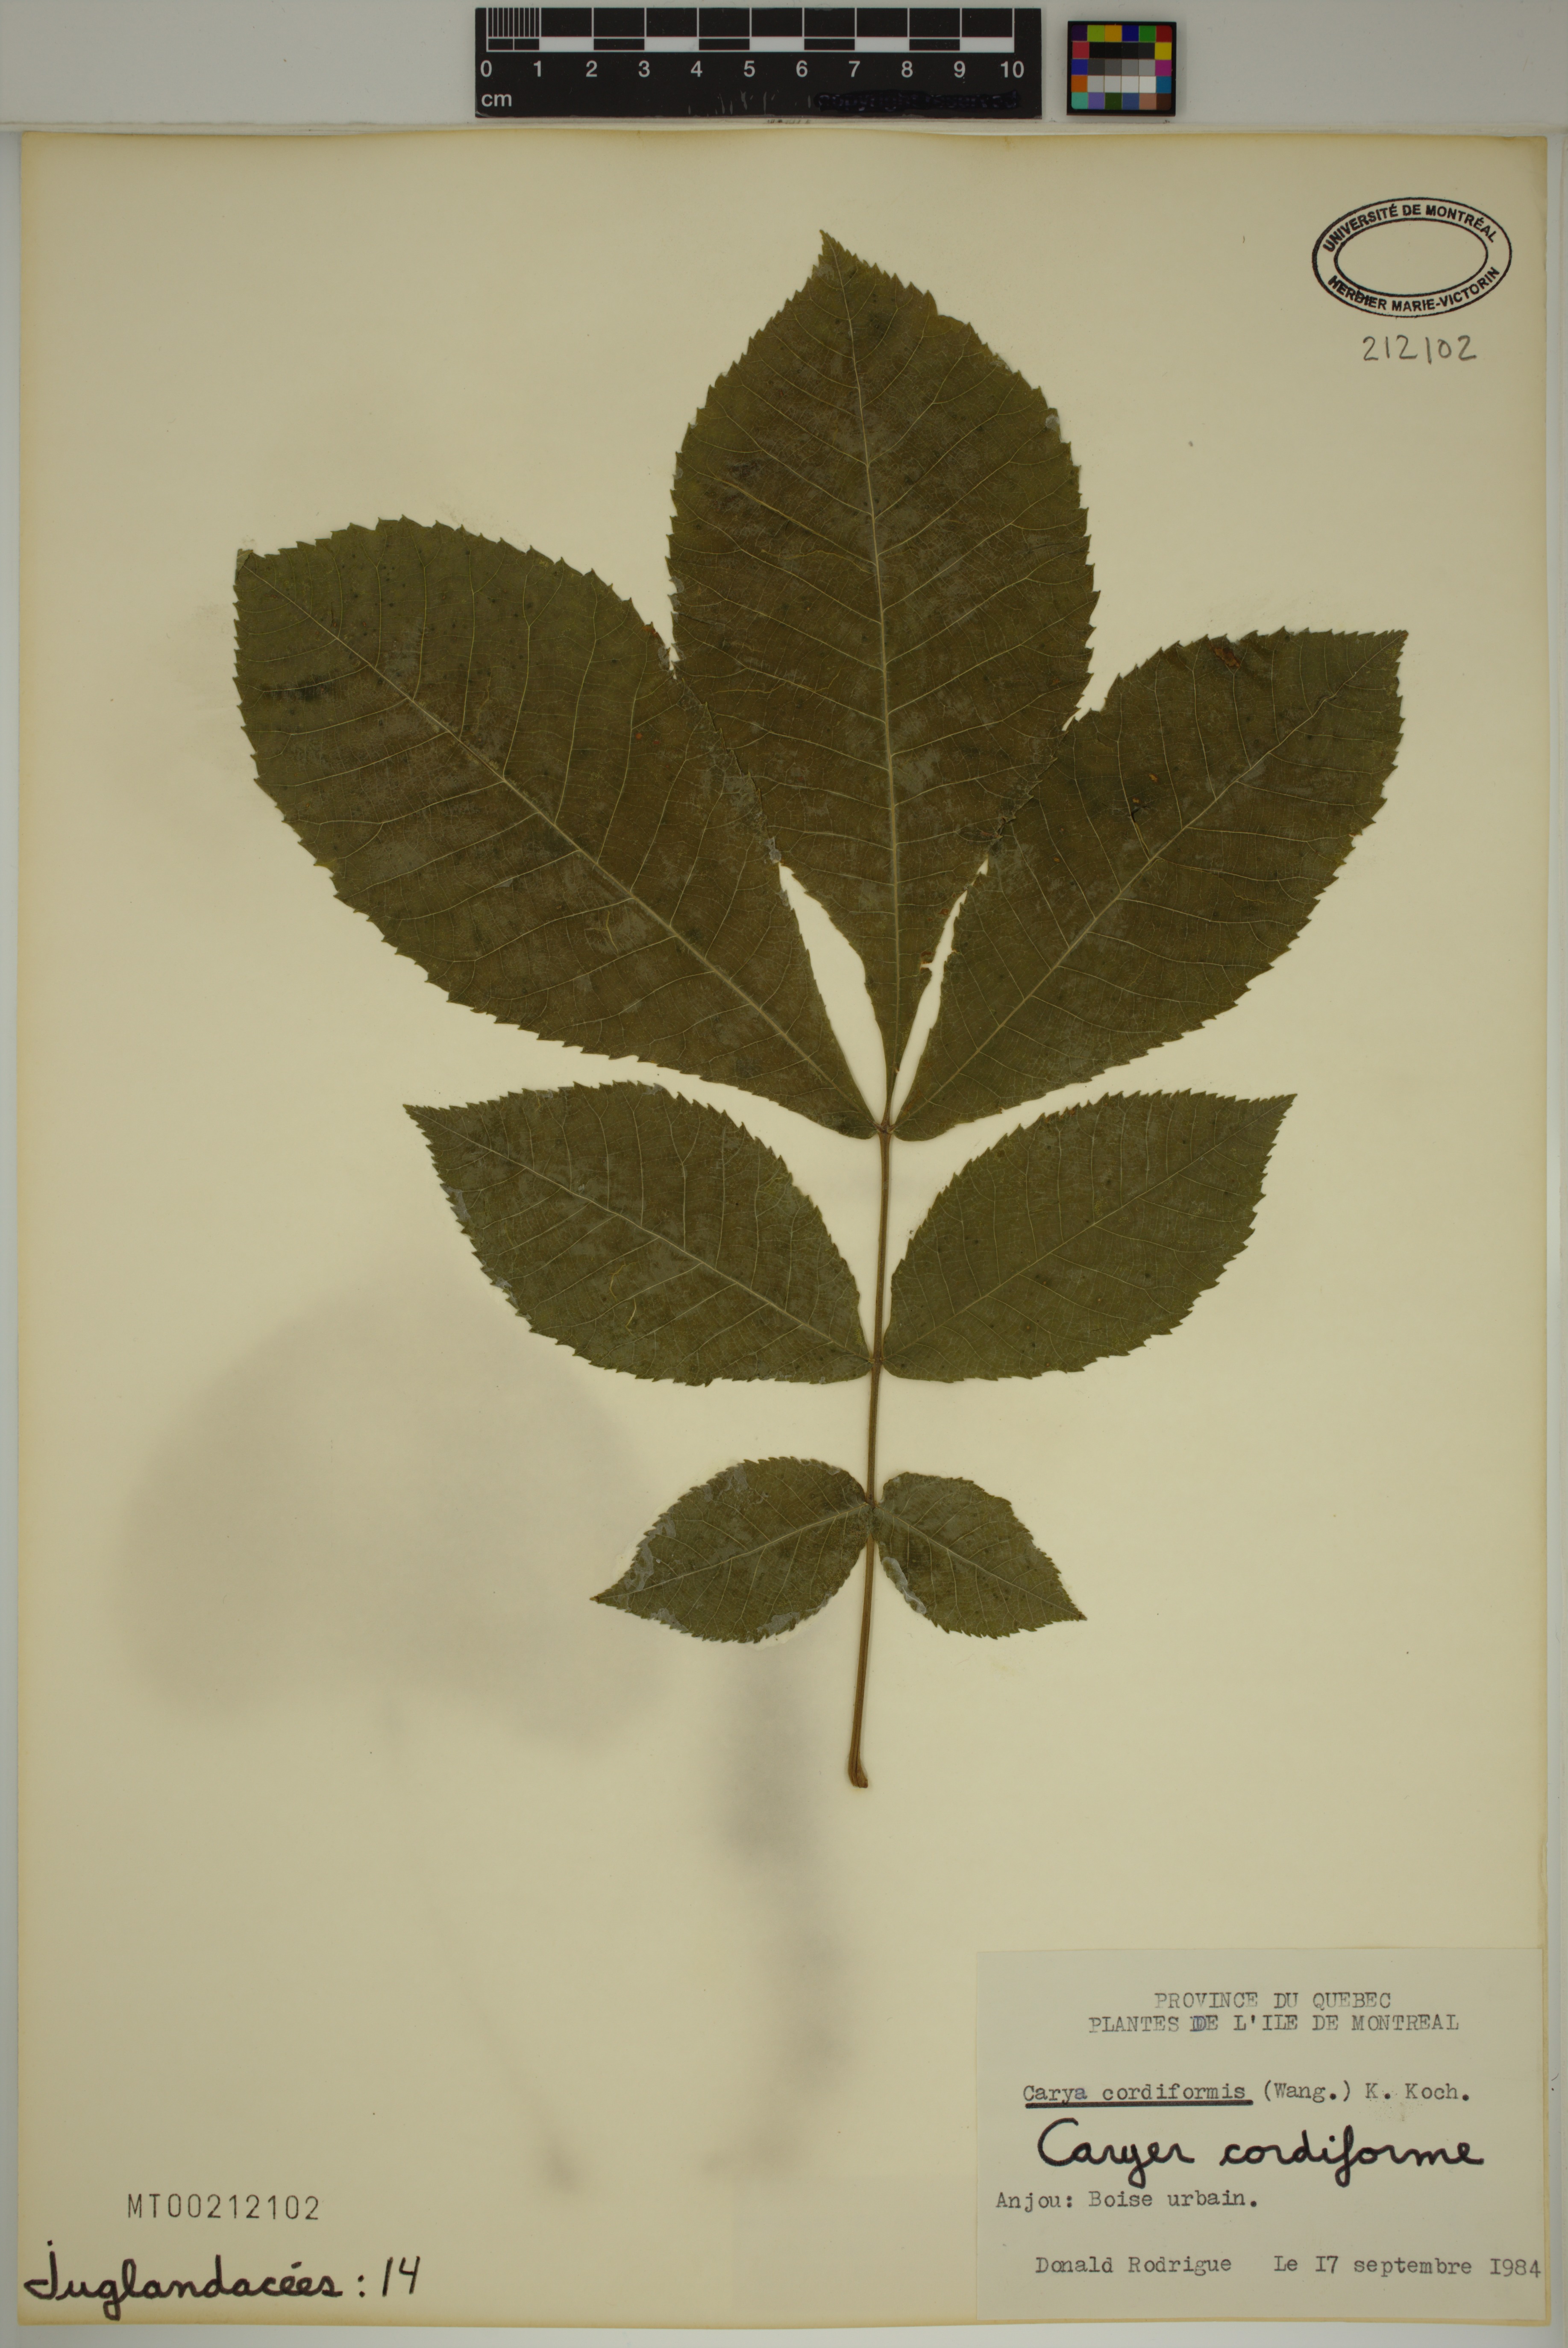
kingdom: Plantae
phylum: Tracheophyta
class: Magnoliopsida
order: Fagales
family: Juglandaceae
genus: Carya
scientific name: Carya cordiformis
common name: Bitternut hickory
